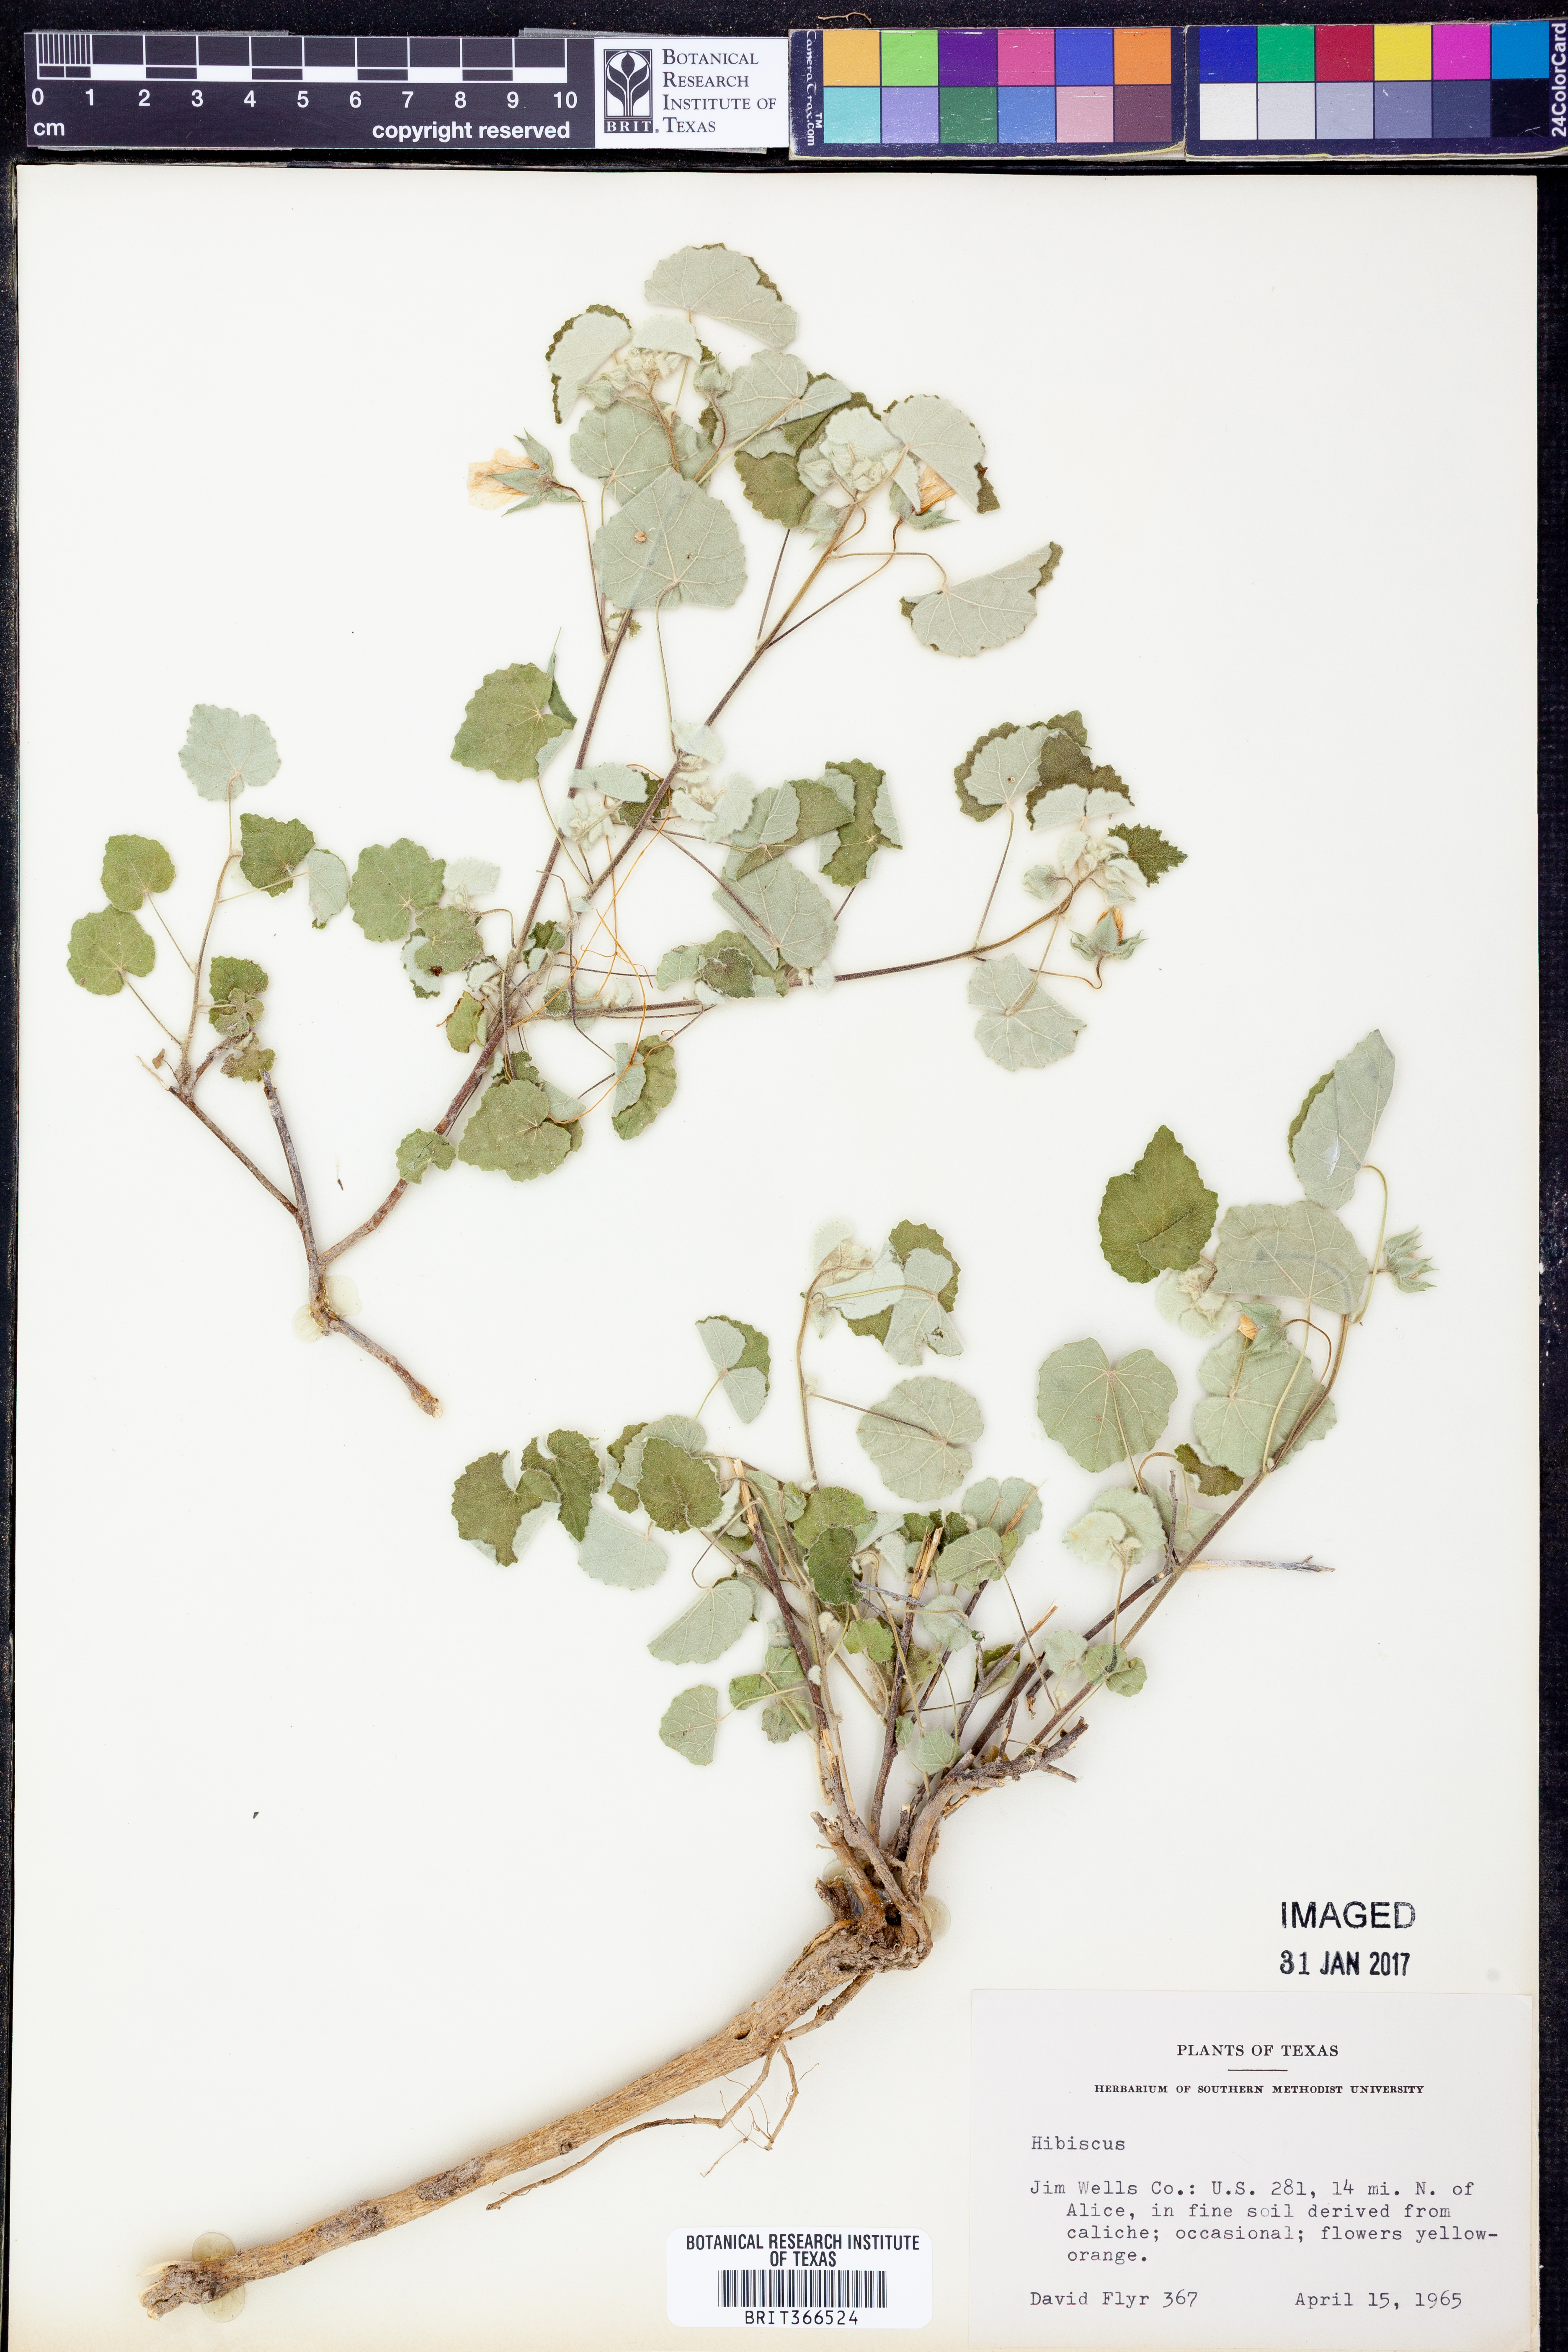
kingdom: Plantae
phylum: Tracheophyta
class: Magnoliopsida
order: Malvales
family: Malvaceae
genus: Hibiscus
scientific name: Hibiscus
